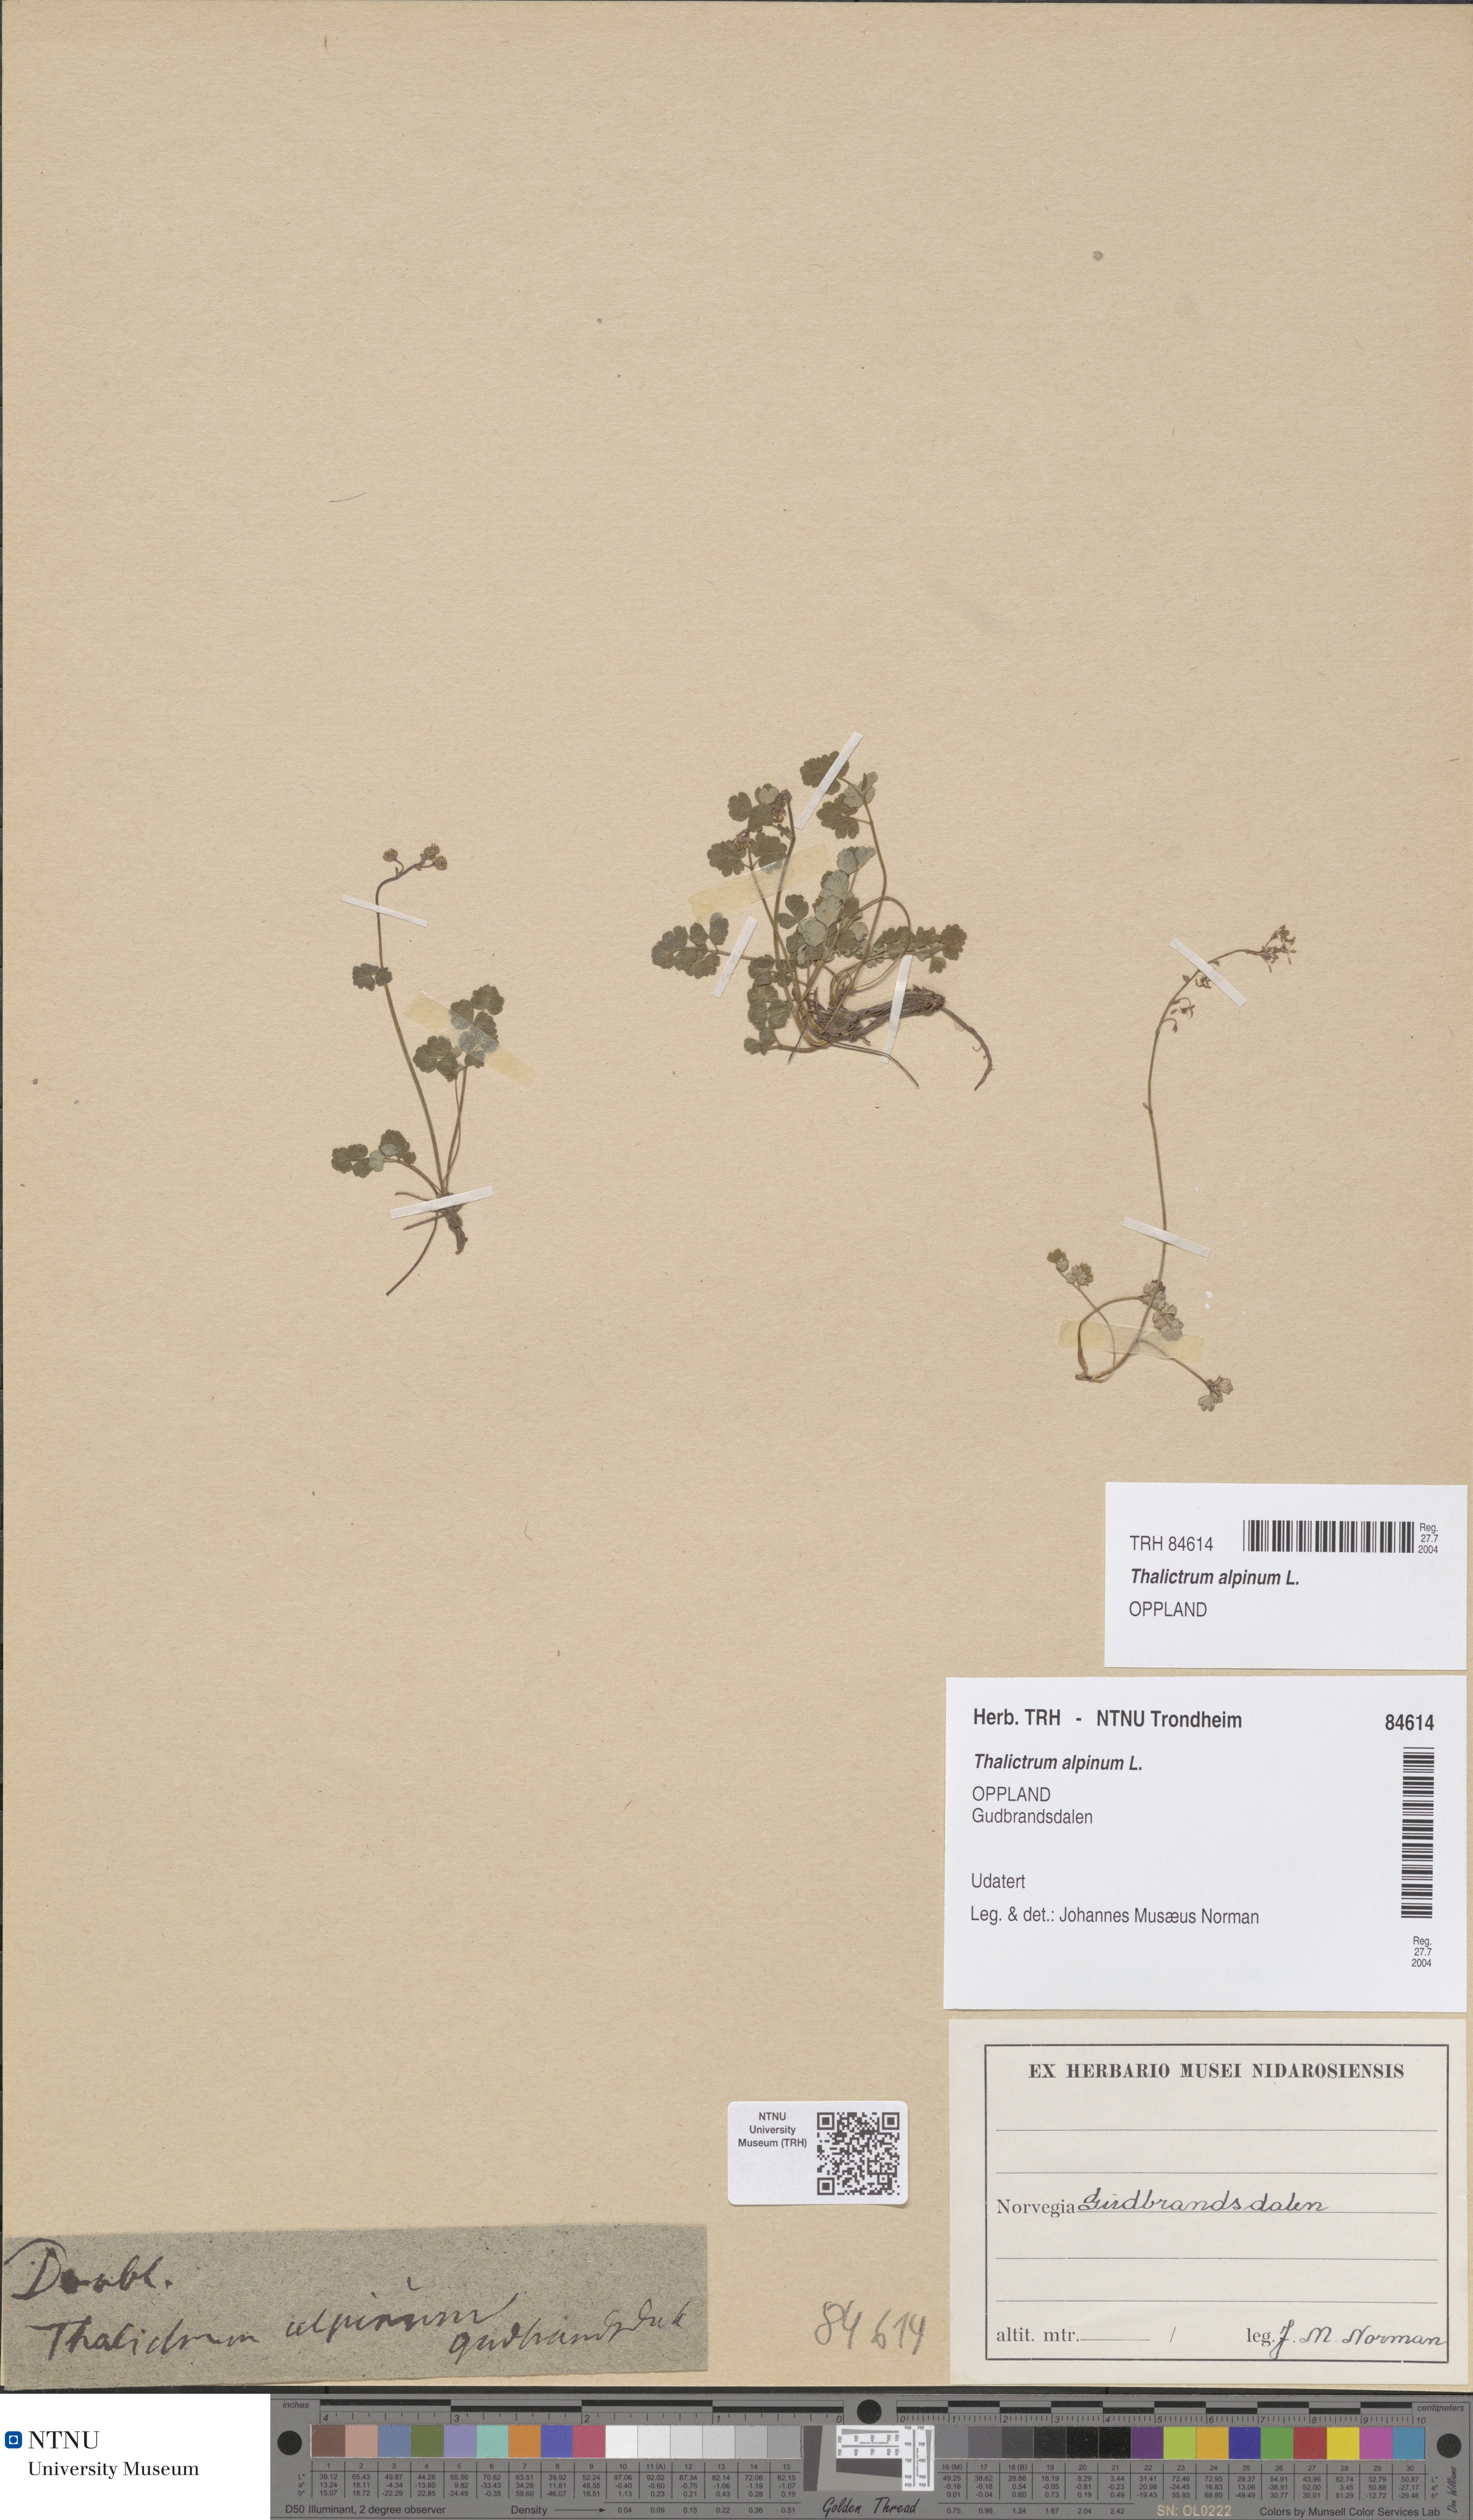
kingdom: Plantae
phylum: Tracheophyta
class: Magnoliopsida
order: Ranunculales
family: Ranunculaceae
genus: Thalictrum
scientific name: Thalictrum alpinum
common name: Alpine meadow-rue
